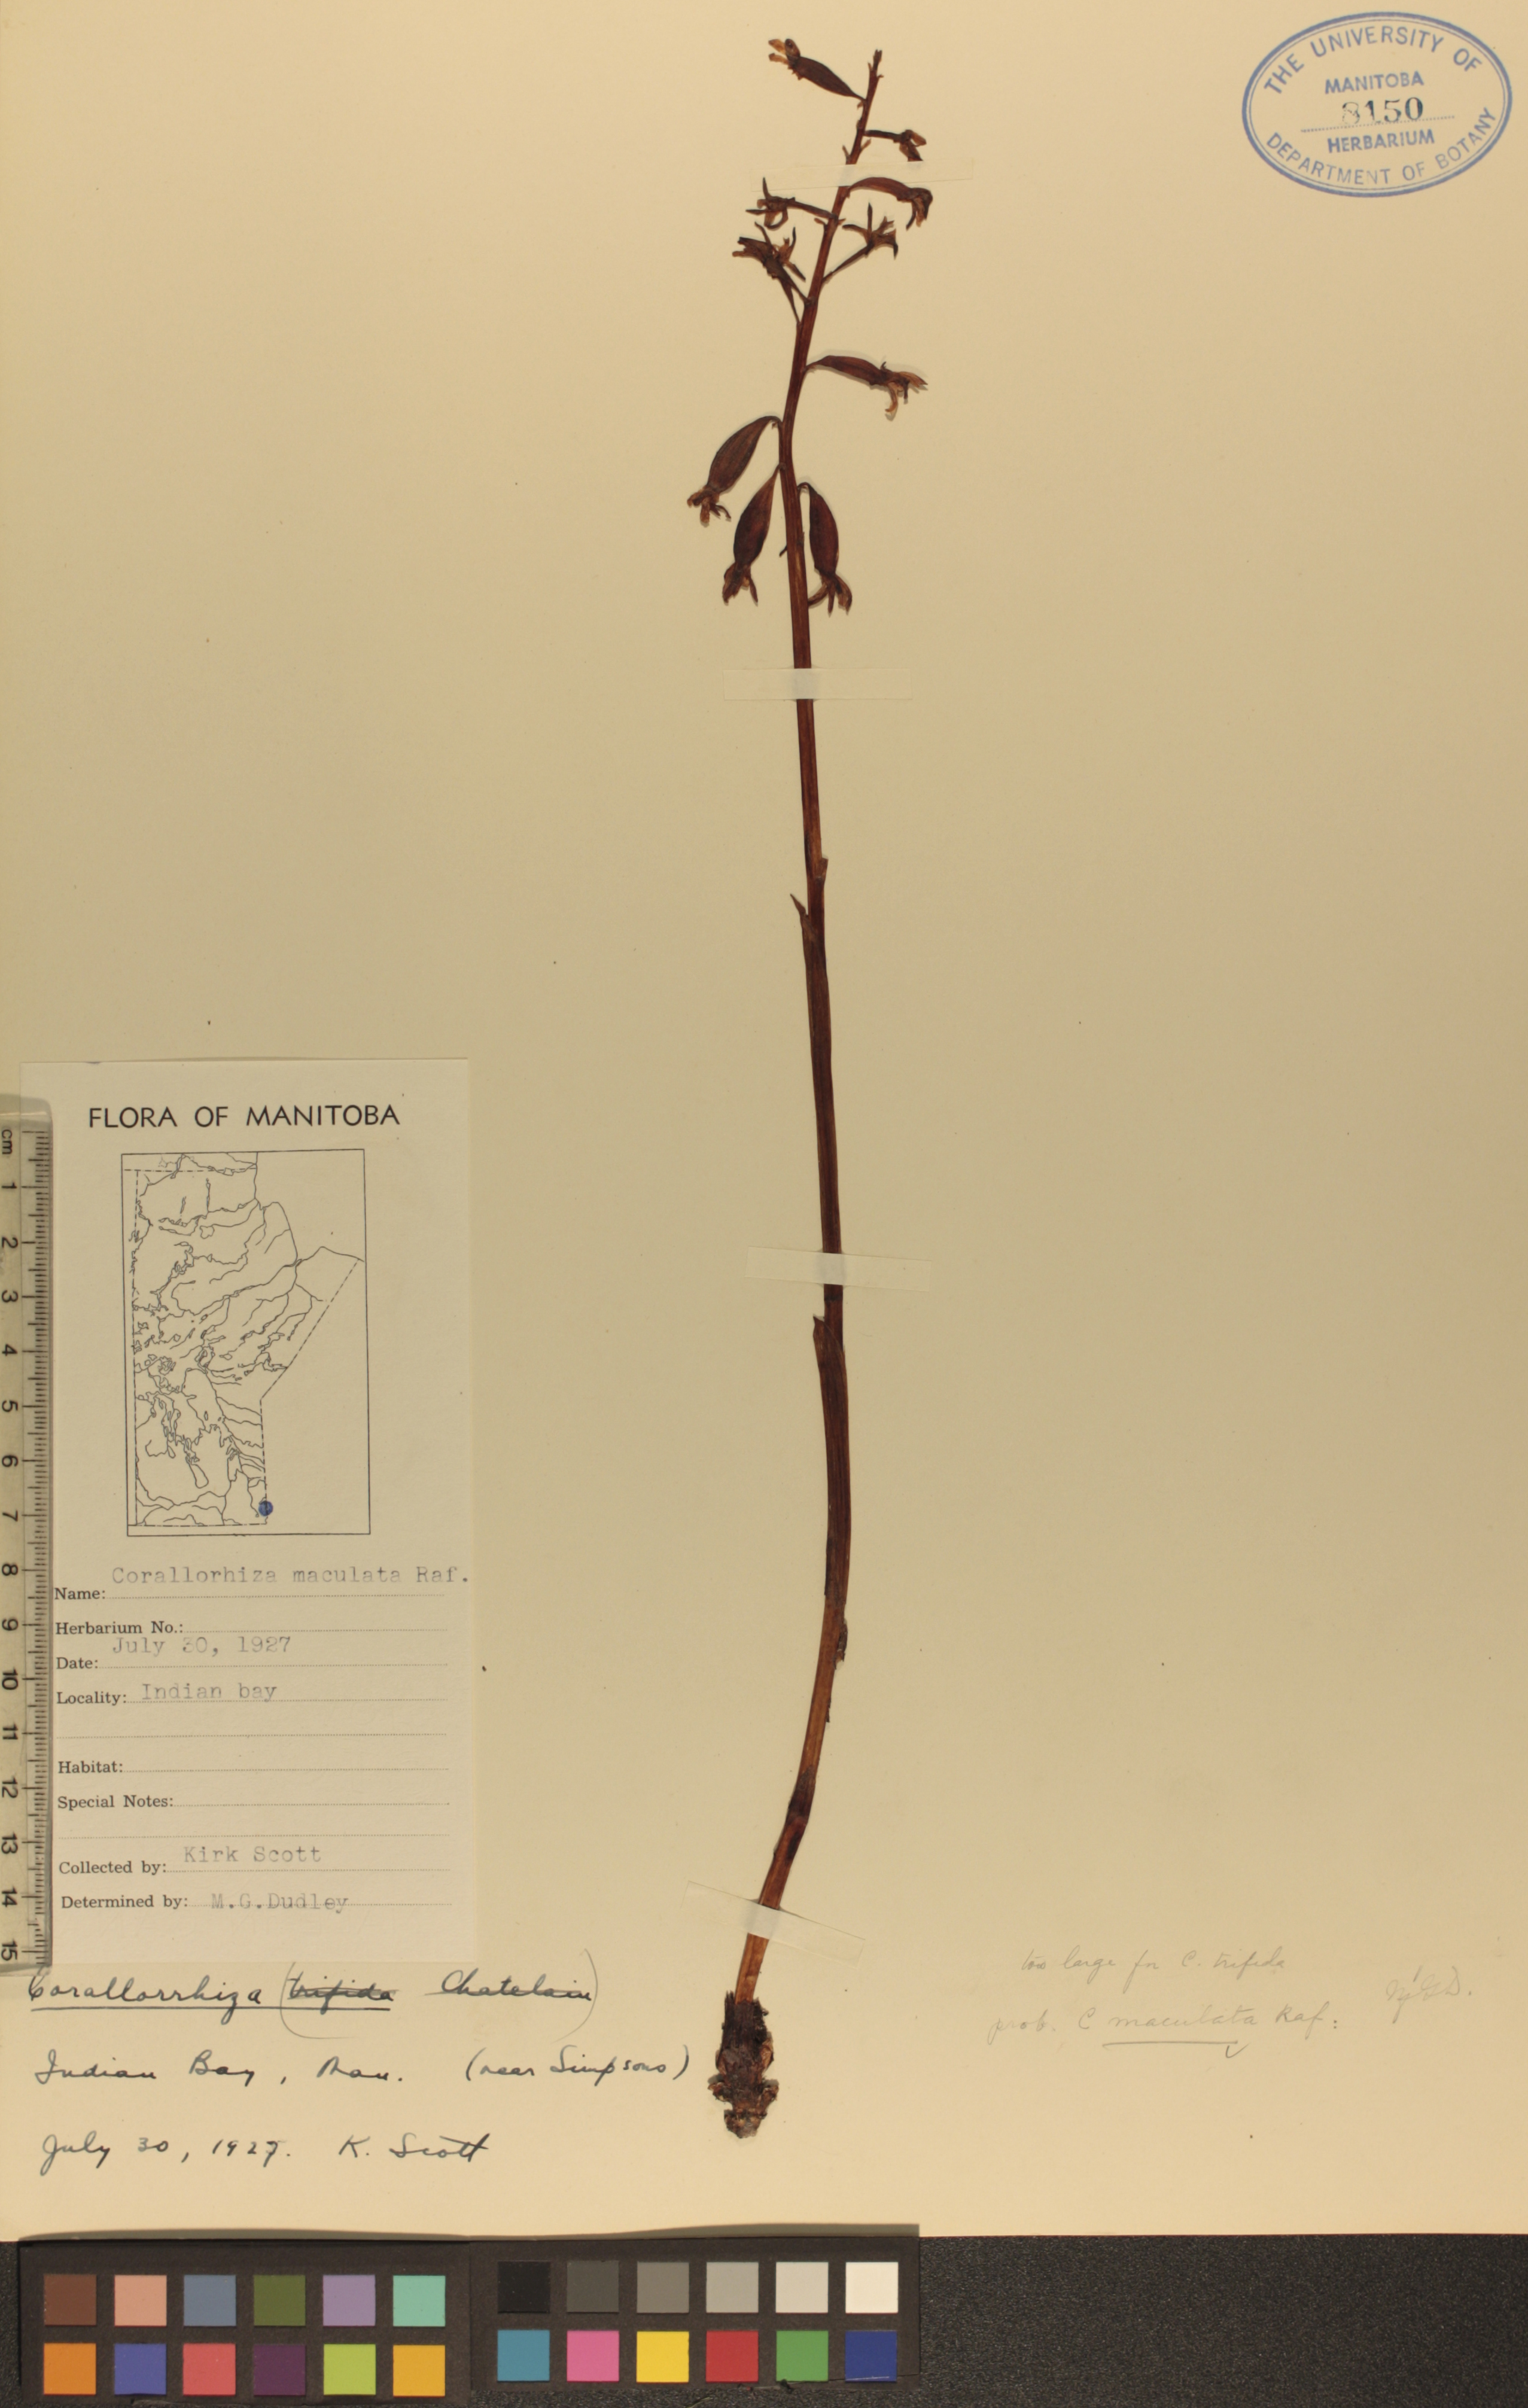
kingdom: Plantae
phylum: Tracheophyta
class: Liliopsida
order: Asparagales
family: Orchidaceae
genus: Corallorhiza
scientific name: Corallorhiza maculata
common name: Spotted coralroot
